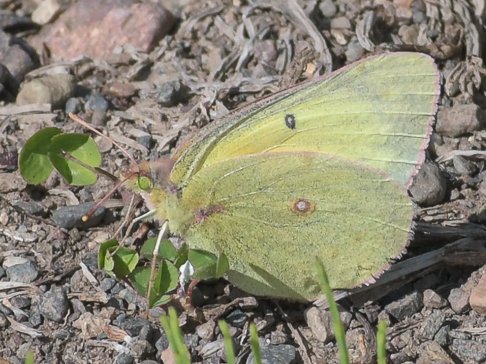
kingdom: Animalia
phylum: Arthropoda
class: Insecta
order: Lepidoptera
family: Pieridae
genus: Colias
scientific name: Colias philodice
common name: Clouded Sulphur
